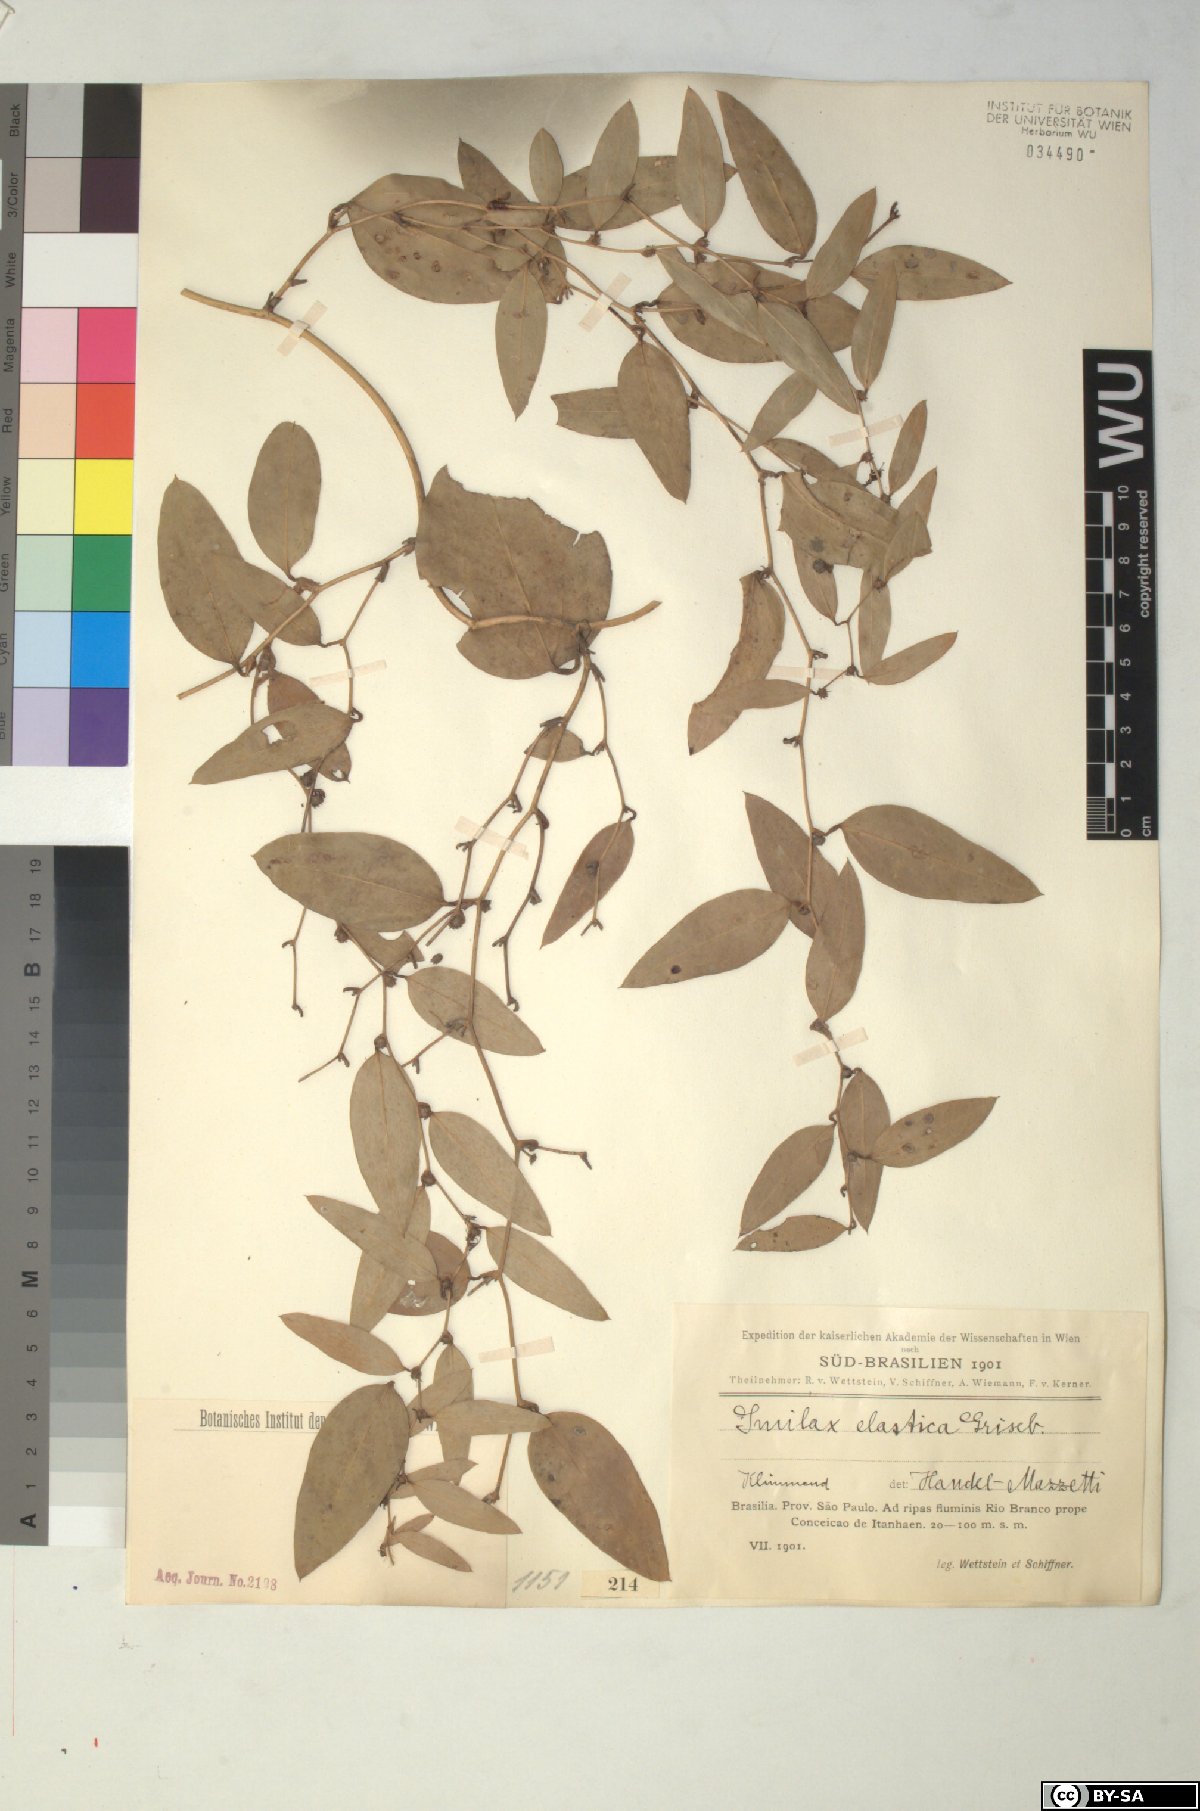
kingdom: Plantae
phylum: Tracheophyta
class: Liliopsida
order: Liliales
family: Smilacaceae
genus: Smilax
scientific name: Smilax elastica
